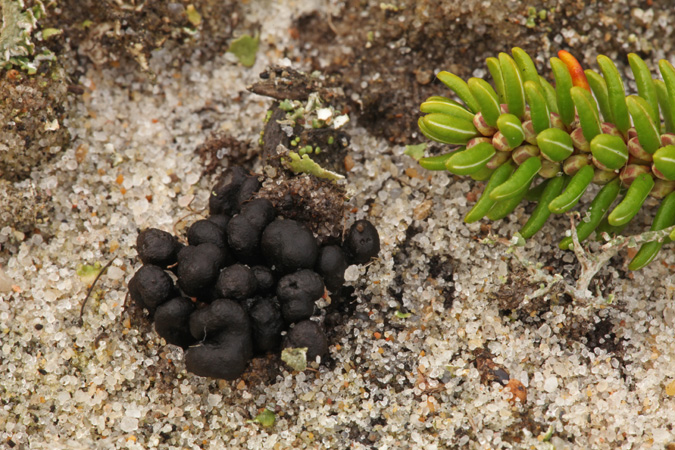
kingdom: Fungi
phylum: Ascomycota
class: Geoglossomycetes
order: Geoglossales
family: Geoglossaceae
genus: Sabuloglossum
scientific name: Sabuloglossum arenarium
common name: klit-jordtunge
